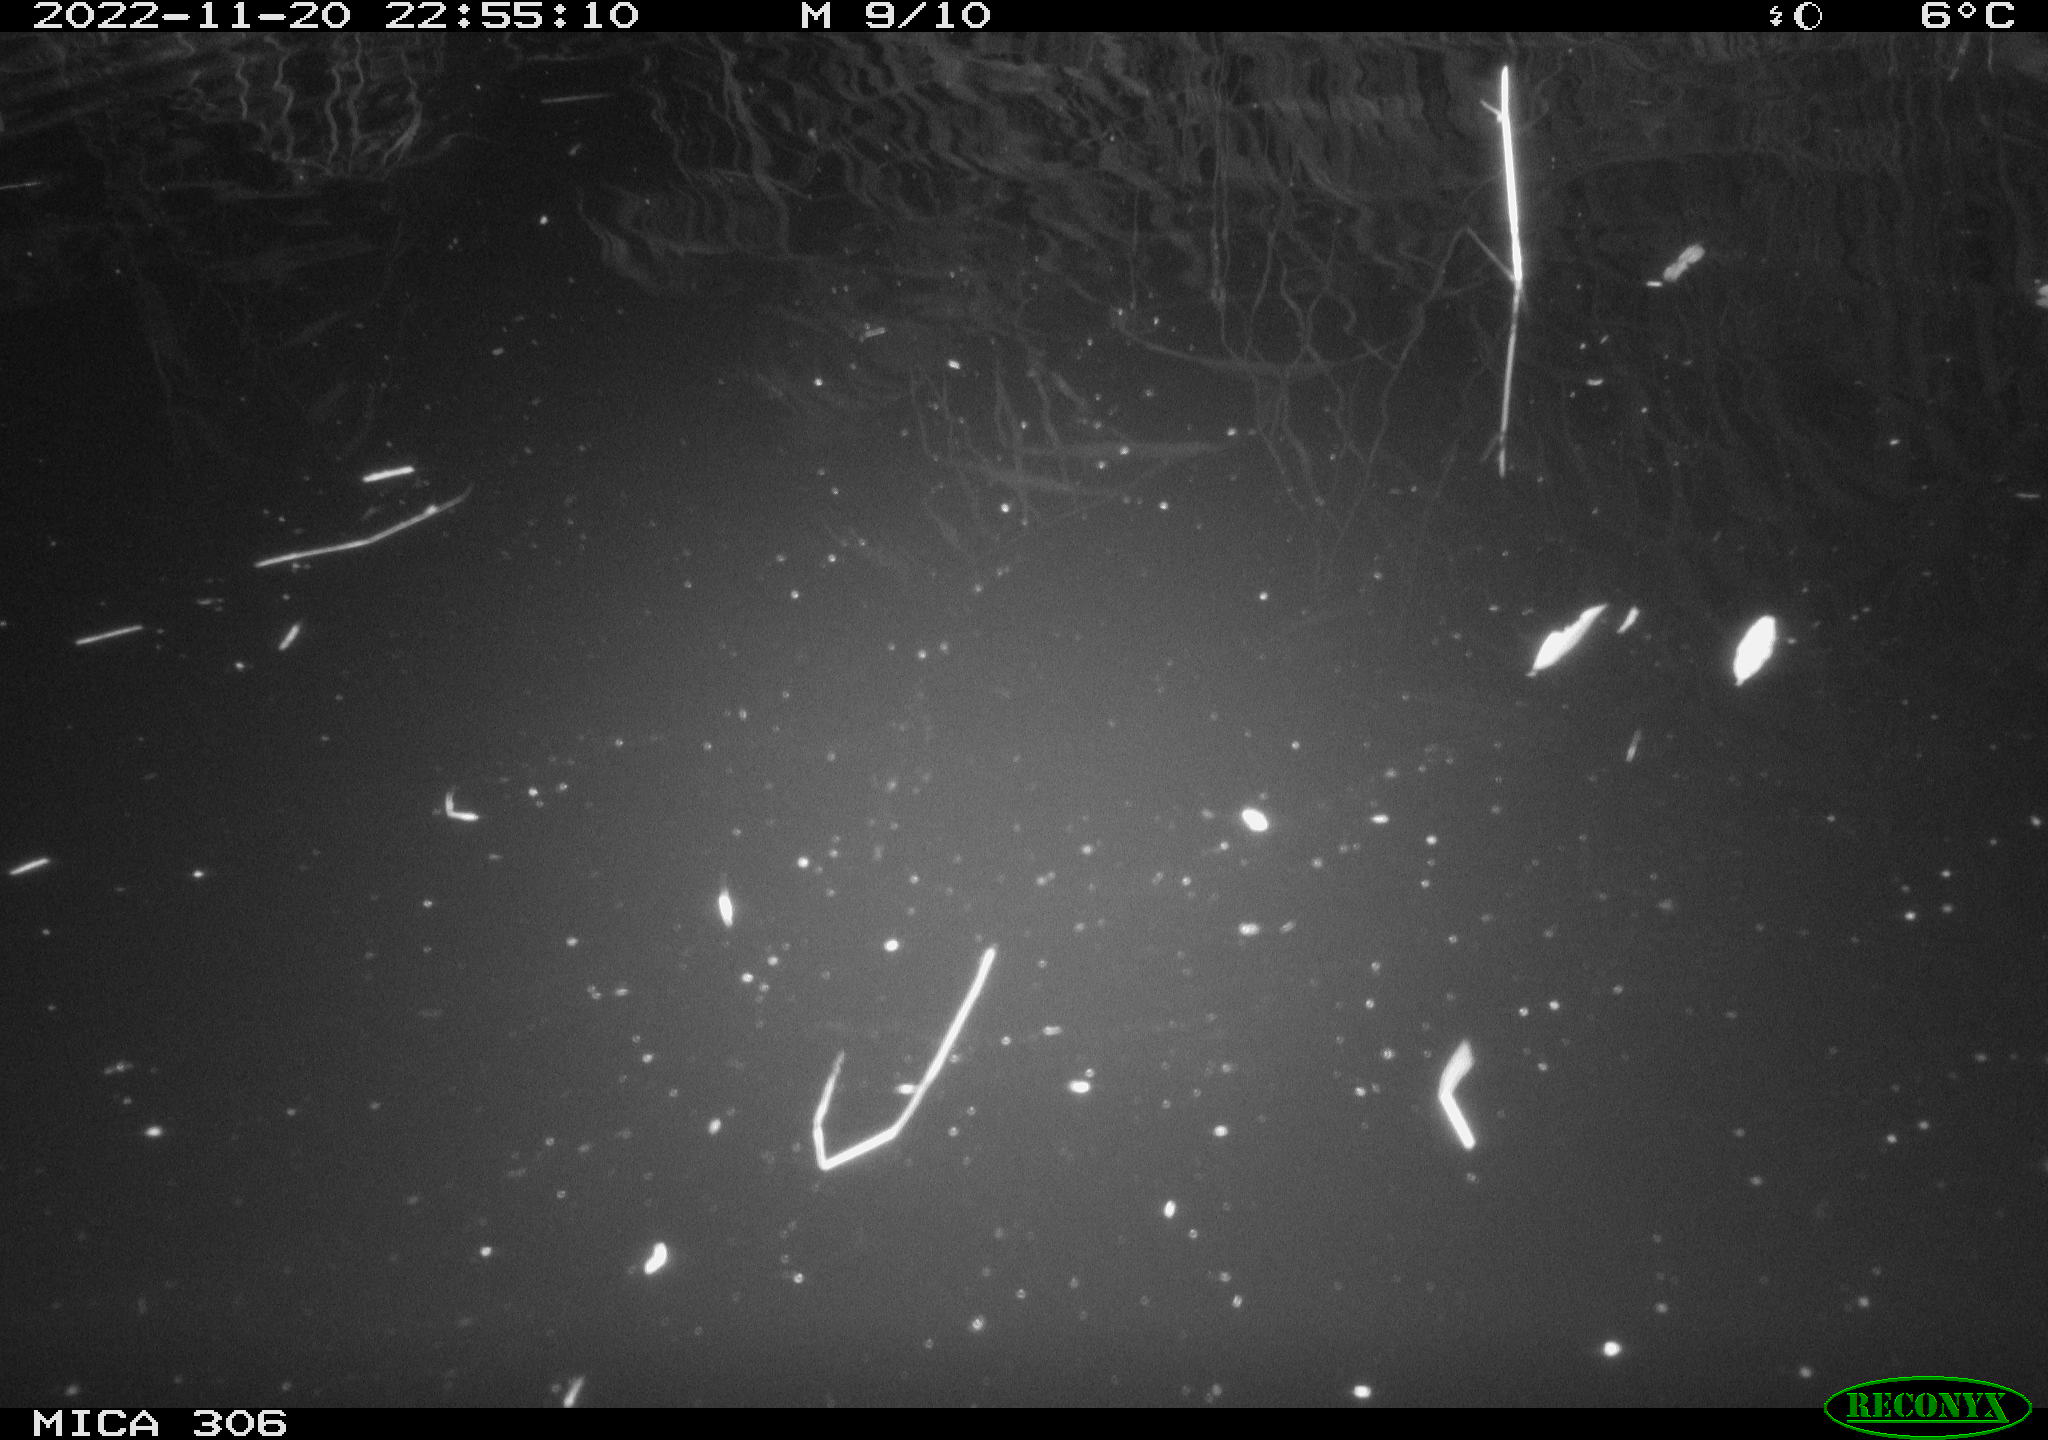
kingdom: Animalia
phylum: Chordata
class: Mammalia
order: Rodentia
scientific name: Rodentia
